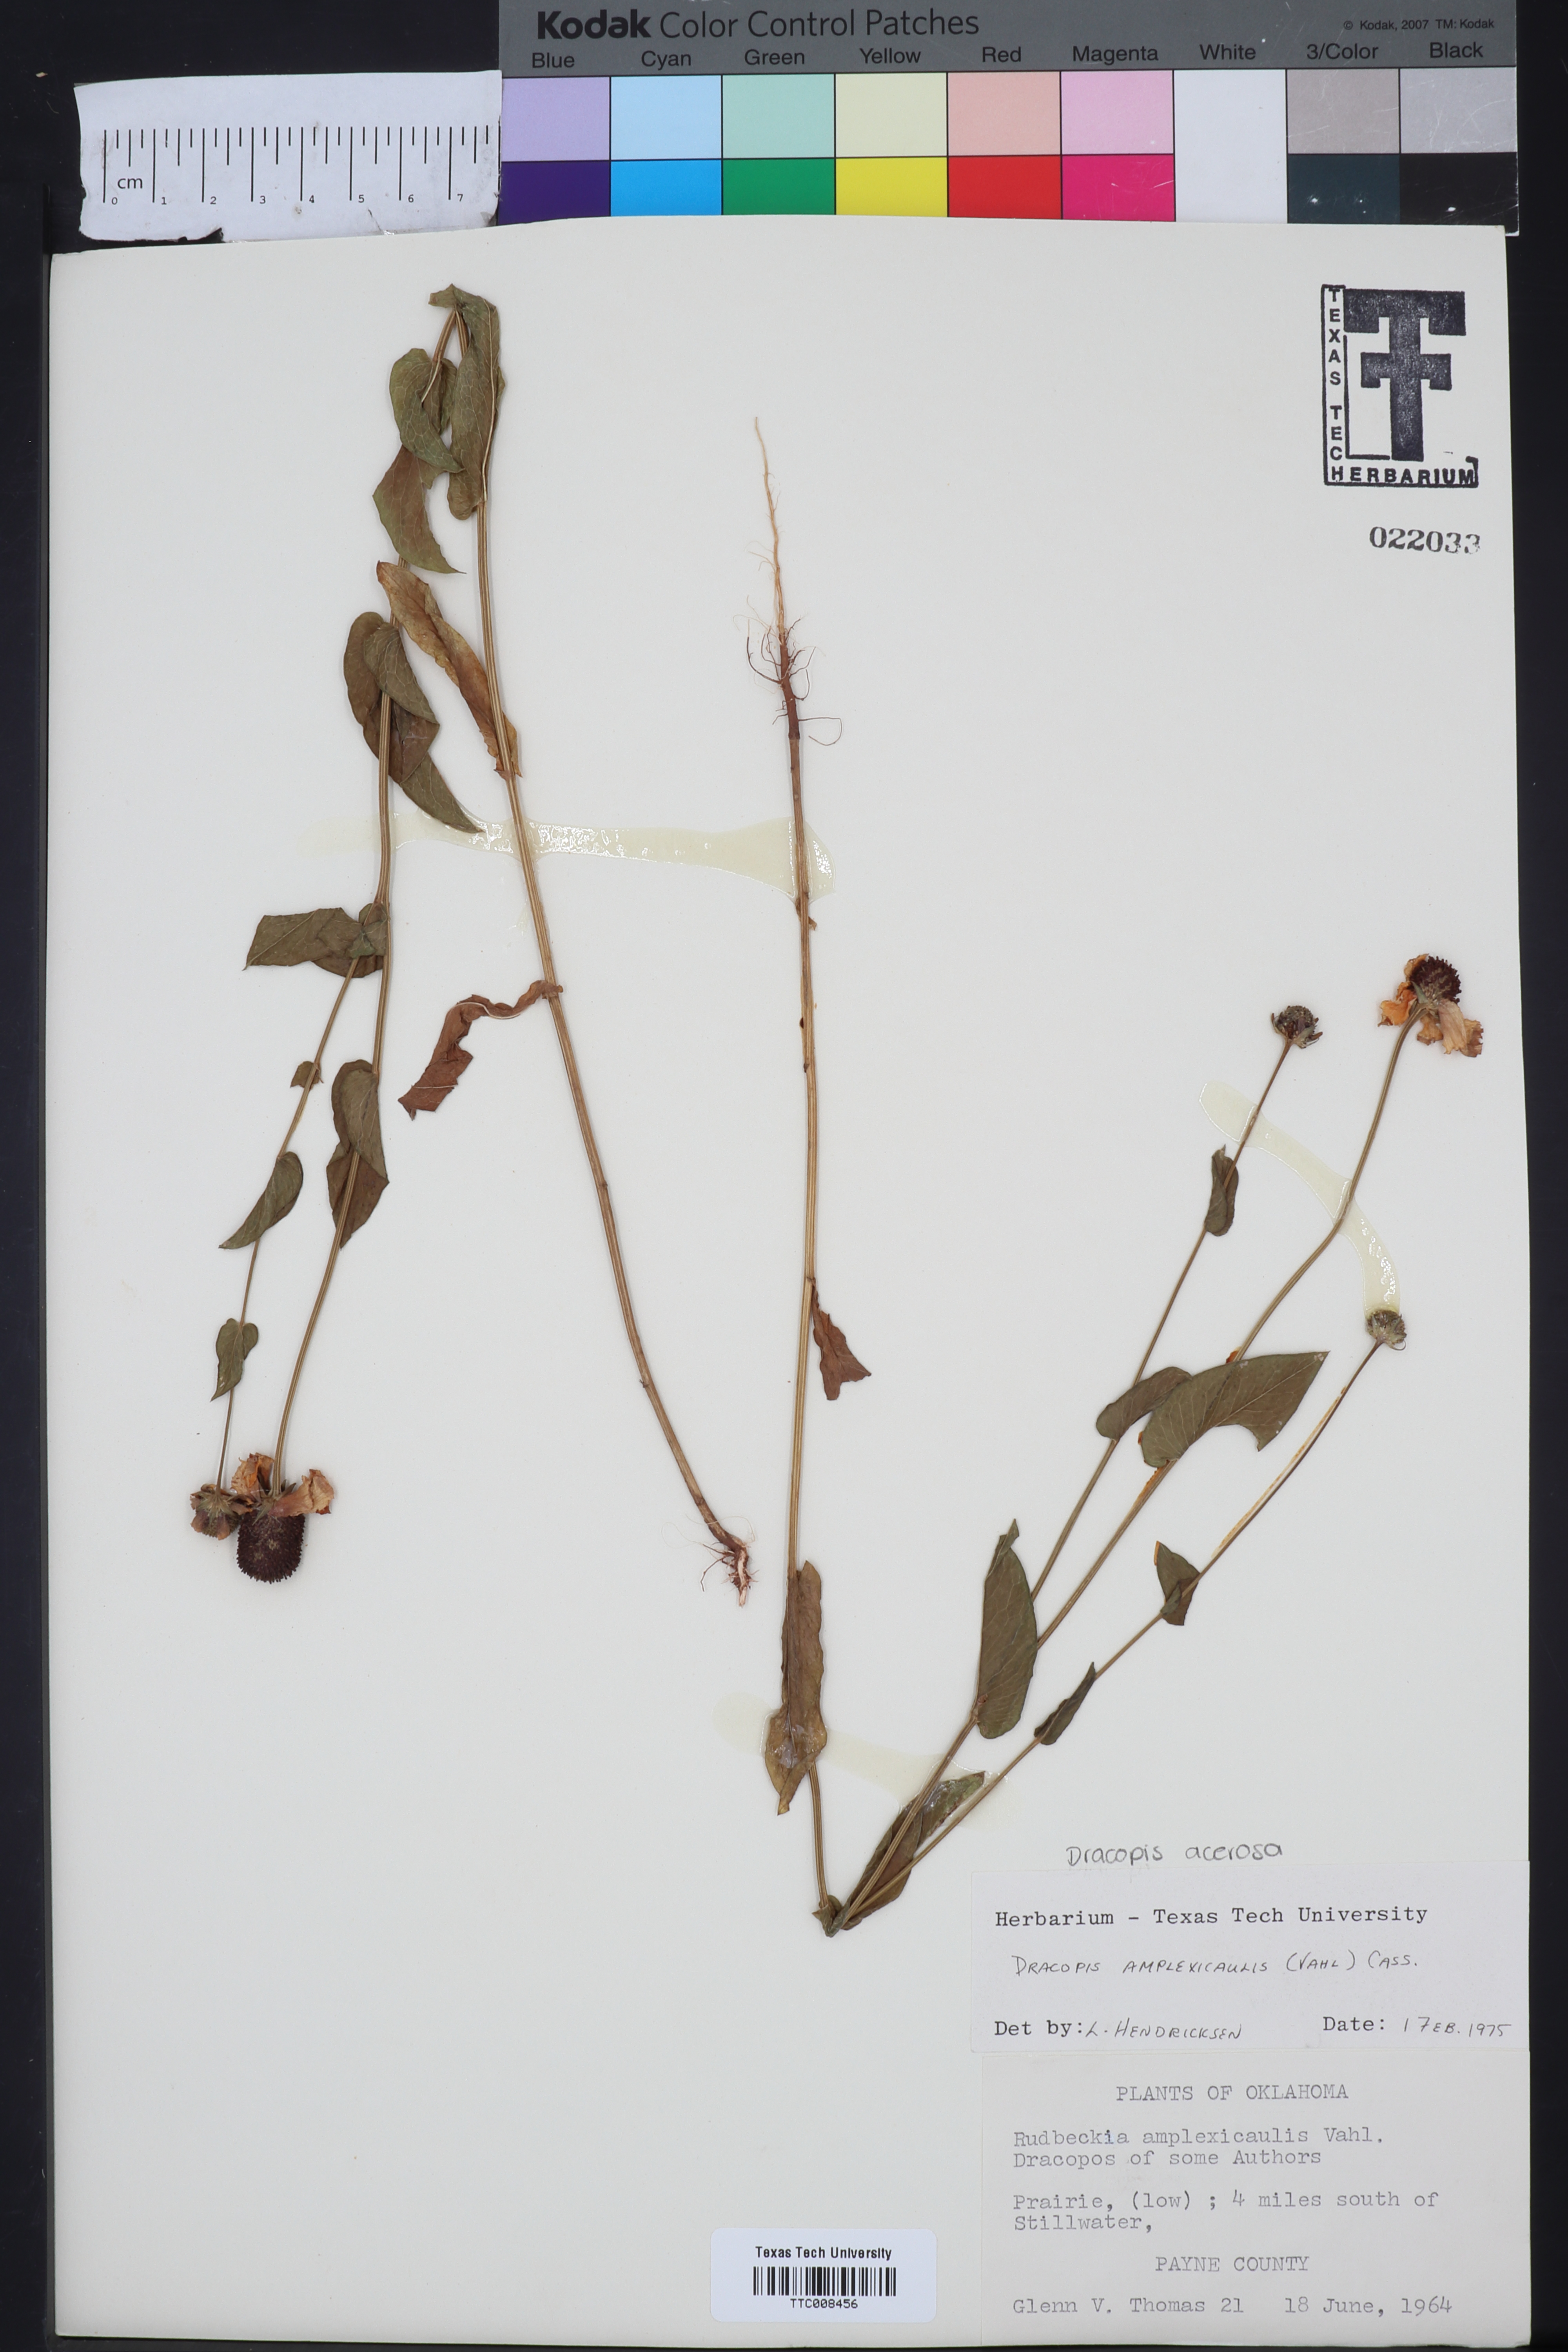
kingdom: Plantae
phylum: Tracheophyta
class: Magnoliopsida
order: Asterales
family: Asteraceae
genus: Rudbeckia
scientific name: Rudbeckia amplexicaulis
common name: Clasping-leaf coneflower
